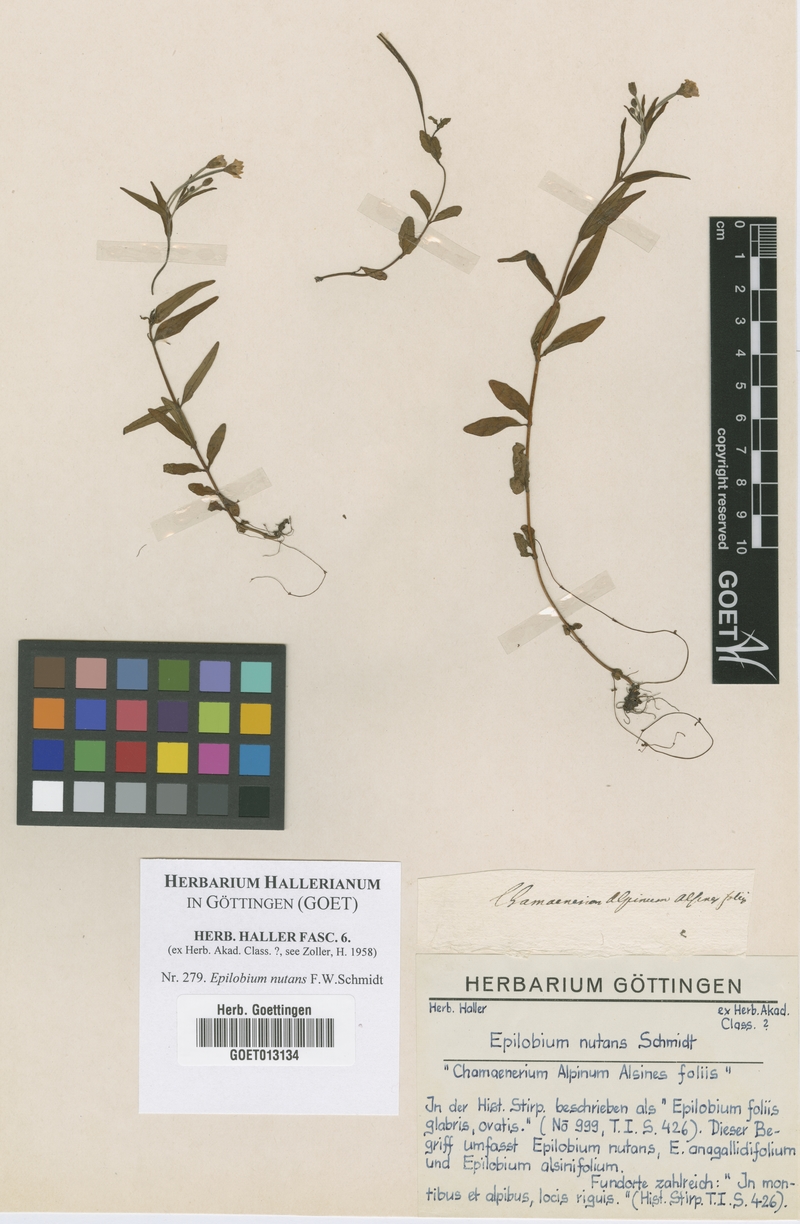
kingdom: Plantae
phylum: Tracheophyta
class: Magnoliopsida
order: Myrtales
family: Onagraceae
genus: Epilobium
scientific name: Epilobium nutans
